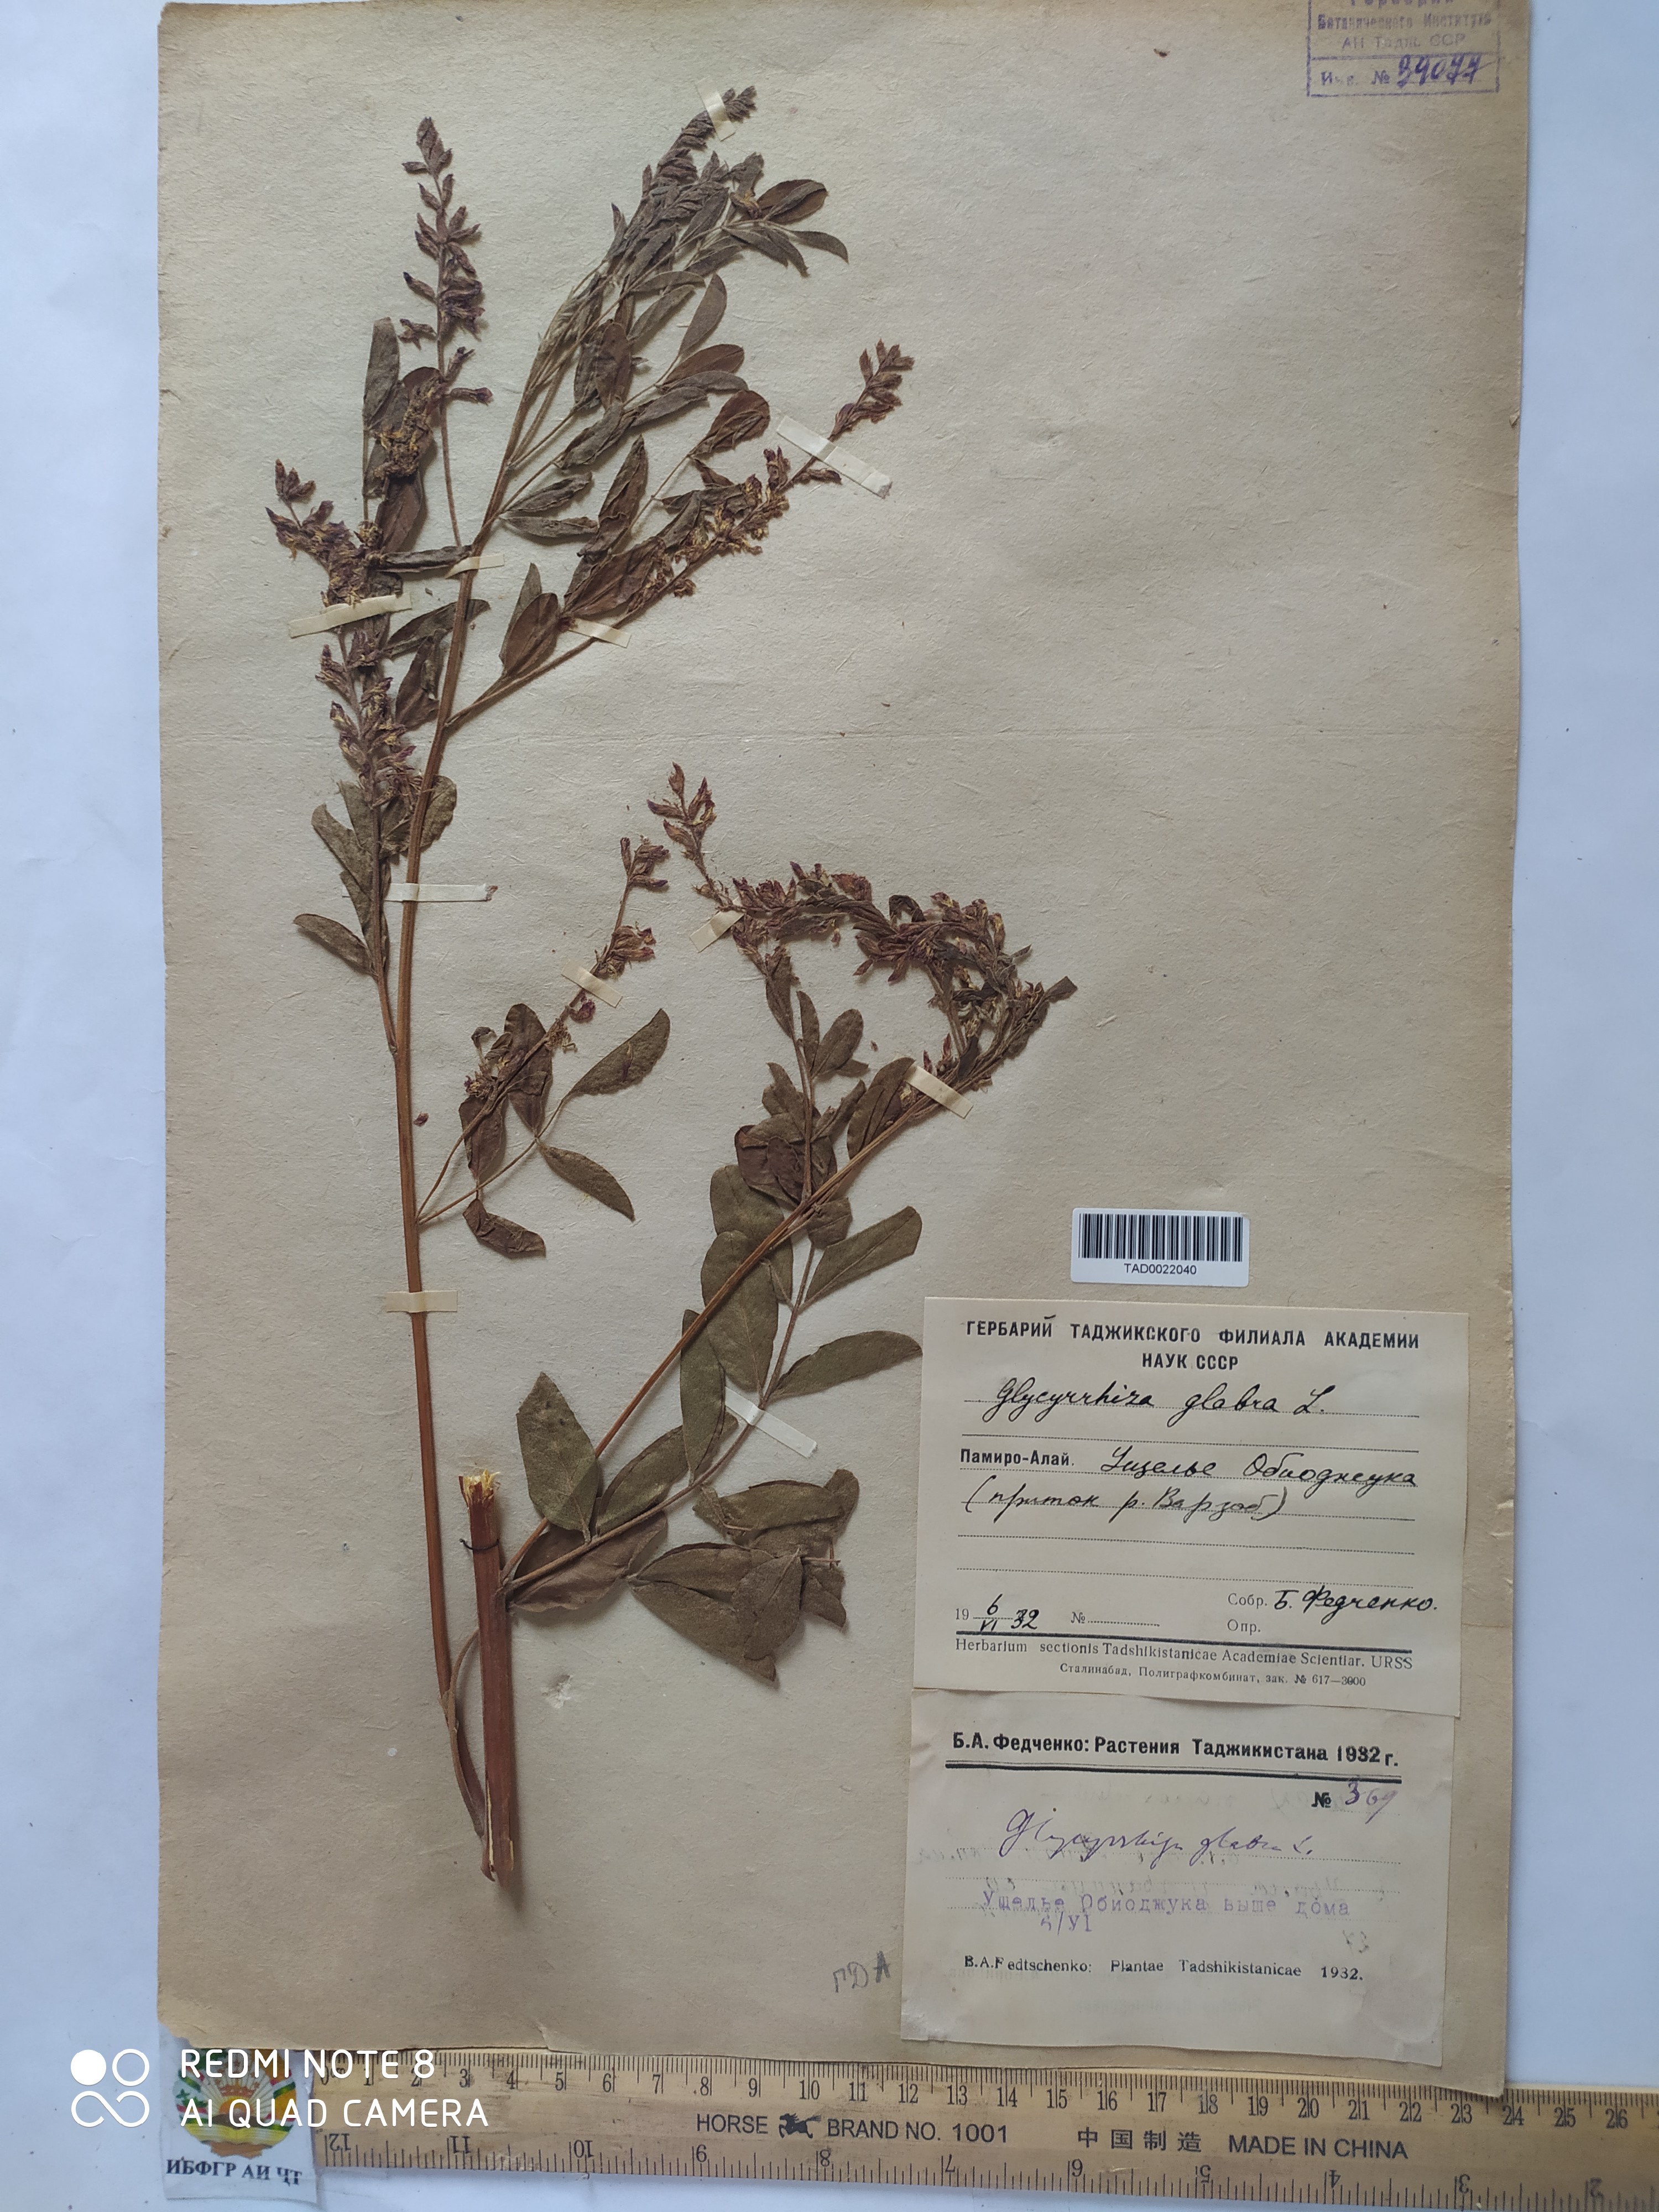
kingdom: Plantae
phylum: Tracheophyta
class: Magnoliopsida
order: Fabales
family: Fabaceae
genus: Glycyrrhiza
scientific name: Glycyrrhiza glabra
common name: Liquorice
